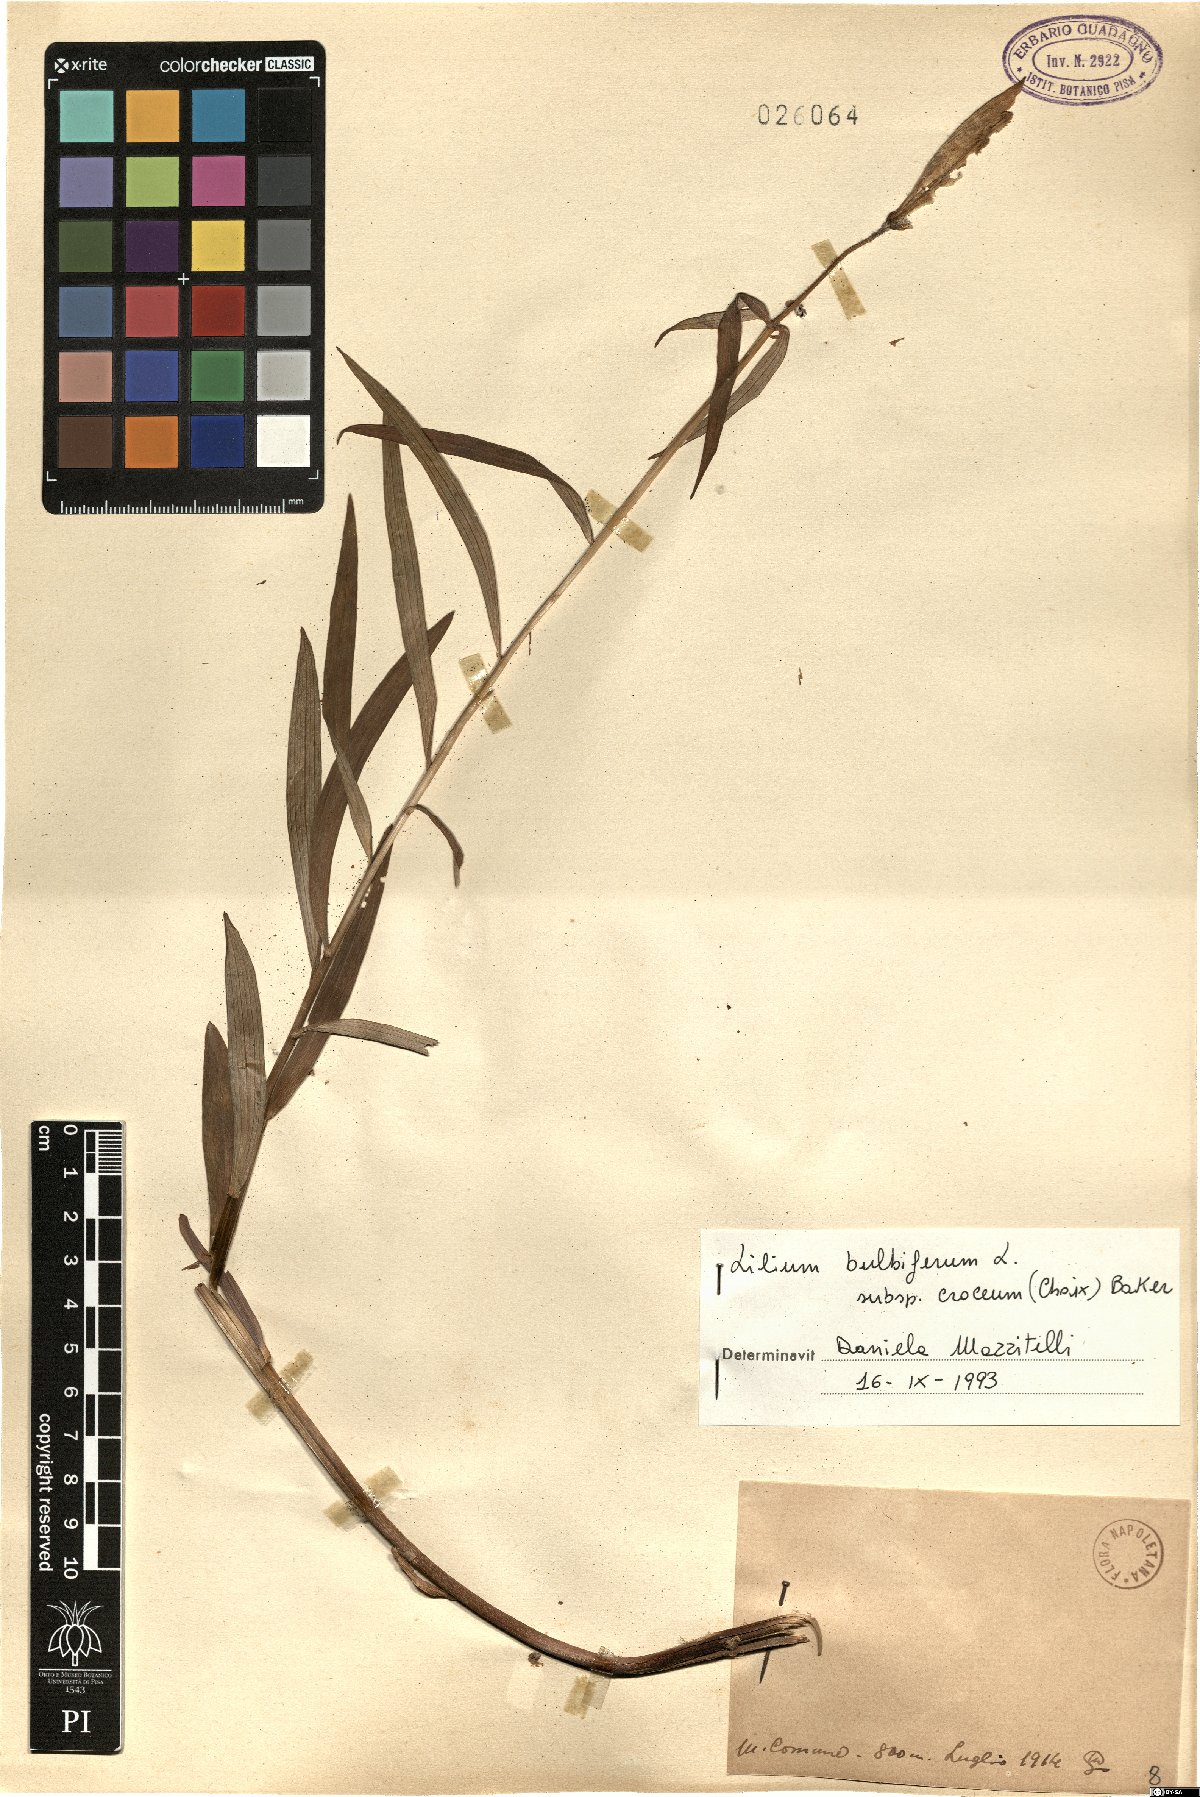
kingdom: Plantae
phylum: Tracheophyta
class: Liliopsida
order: Liliales
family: Liliaceae
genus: Lilium
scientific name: Lilium bulbiferum
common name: Orange lily
